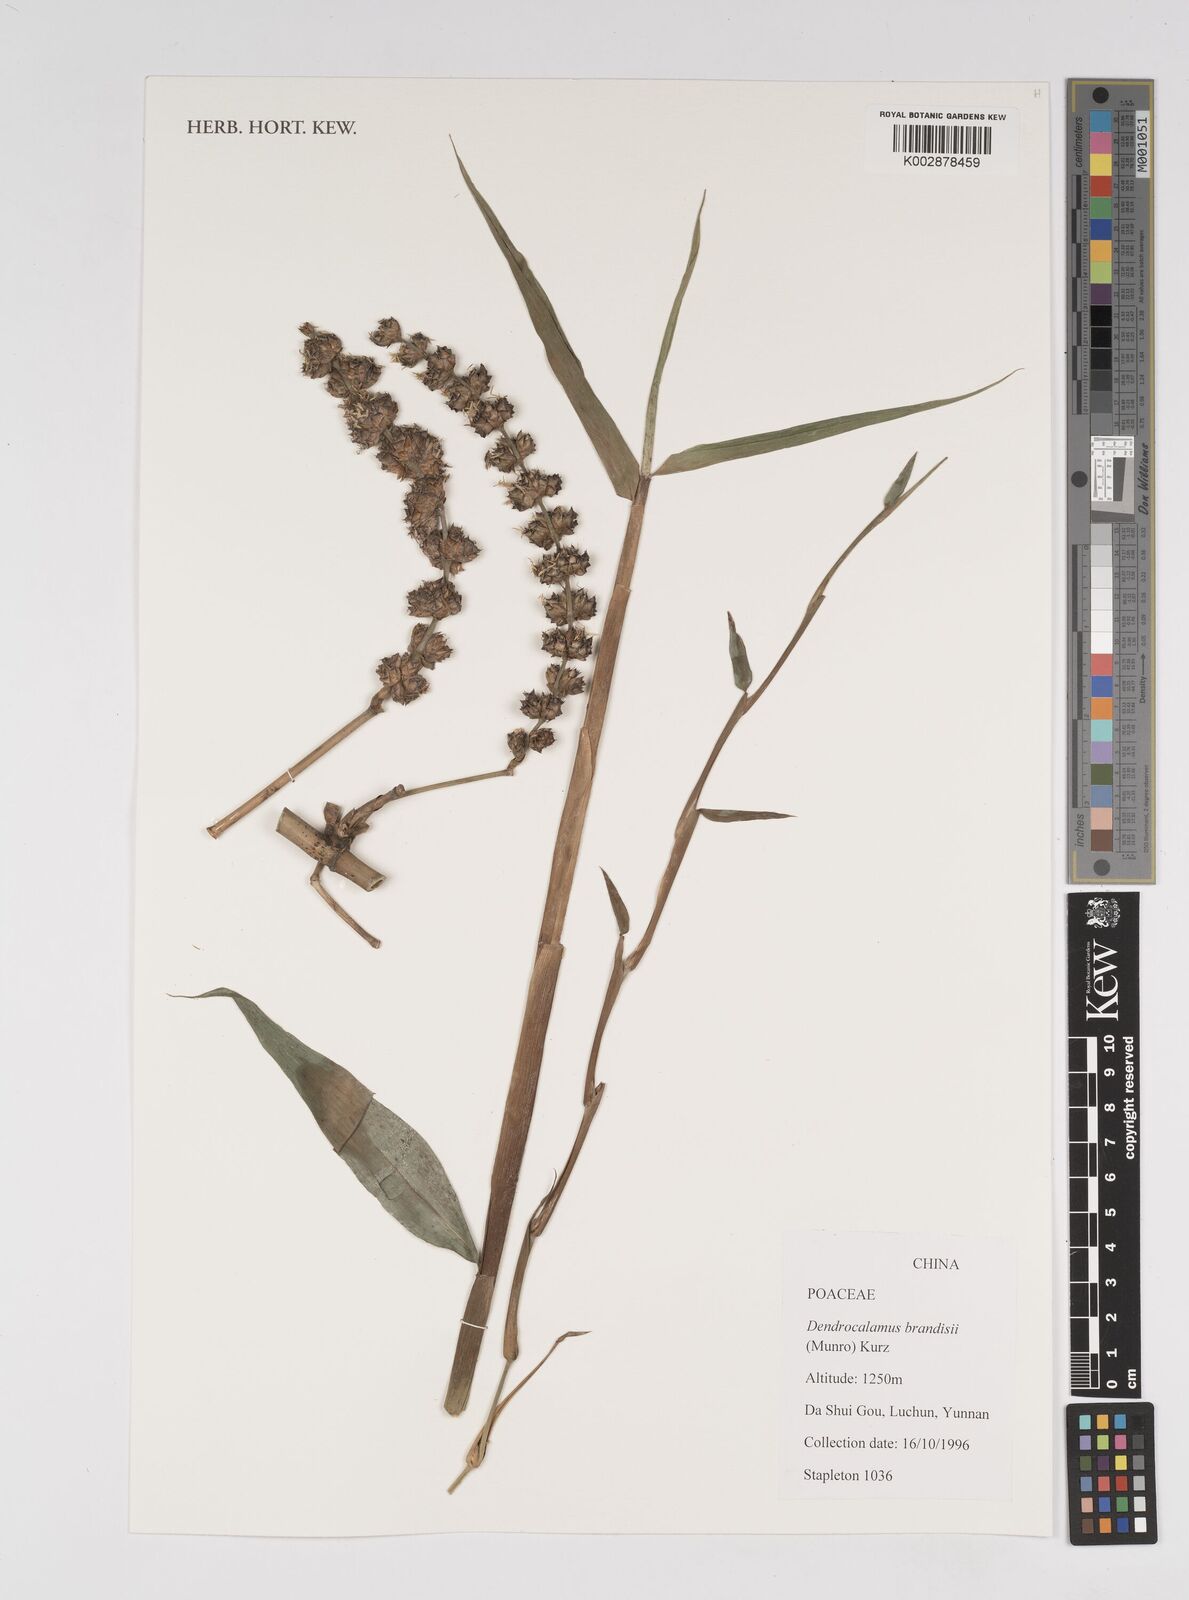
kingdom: Plantae
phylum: Tracheophyta
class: Liliopsida
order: Poales
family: Poaceae
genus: Dendrocalamus
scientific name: Dendrocalamus brandisii
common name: Velvetleaf bamboo
